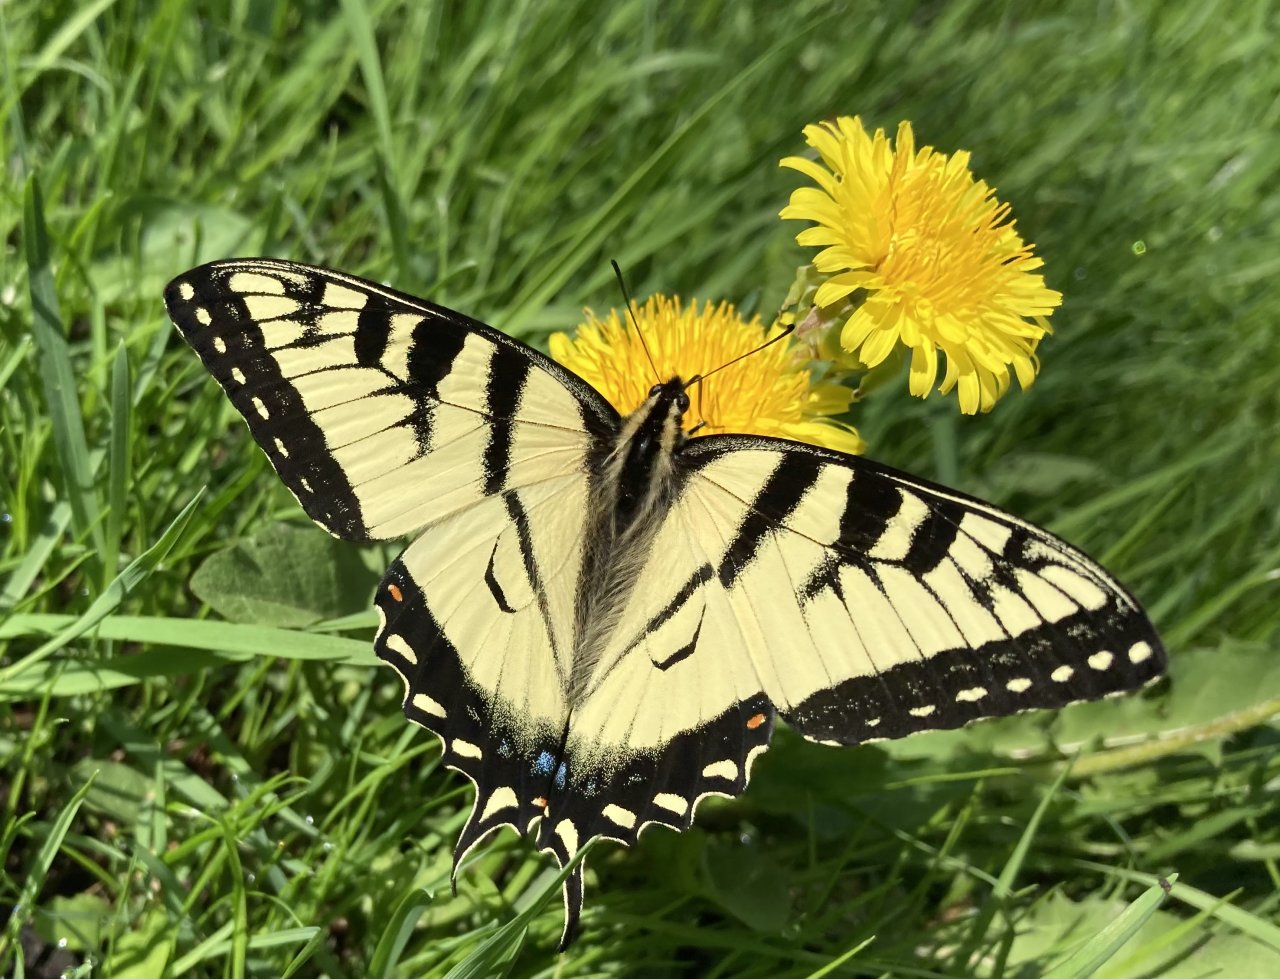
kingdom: Animalia
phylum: Arthropoda
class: Insecta
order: Lepidoptera
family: Papilionidae
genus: Pterourus
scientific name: Pterourus canadensis
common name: Canadian Tiger Swallowtail
